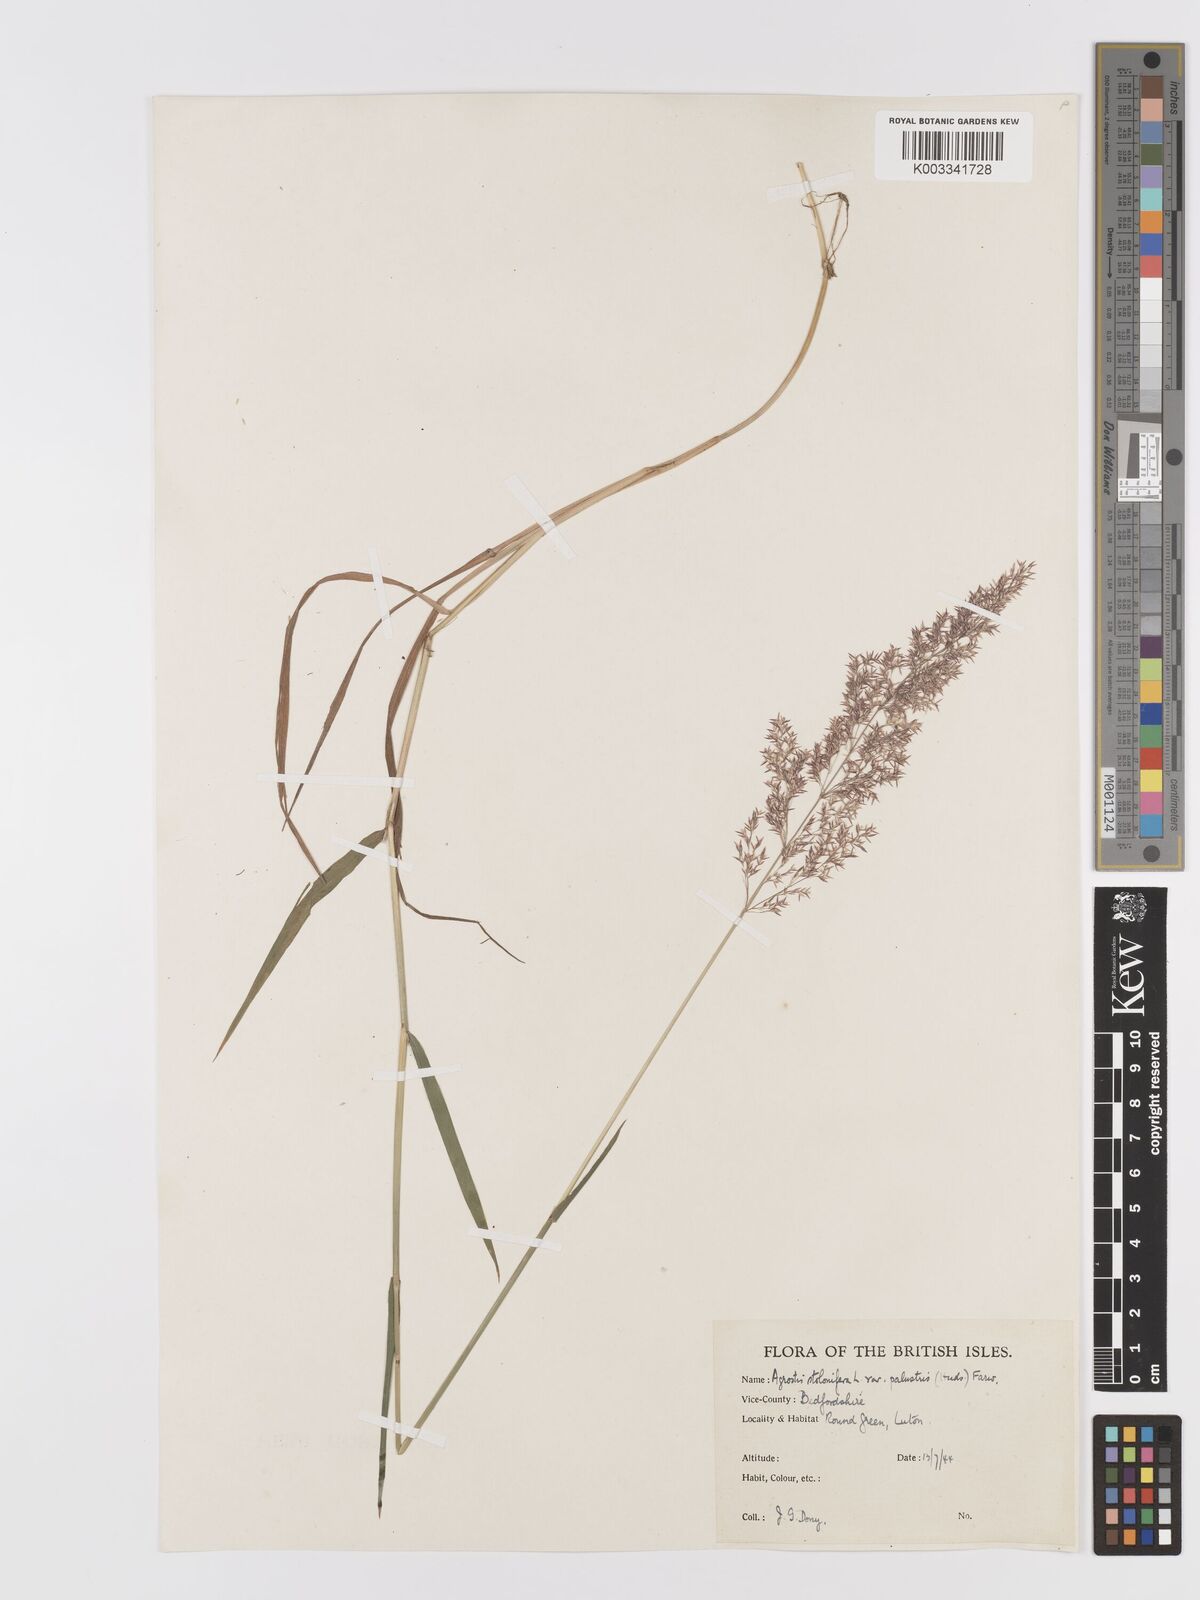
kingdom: Plantae
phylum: Tracheophyta
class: Liliopsida
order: Poales
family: Poaceae
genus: Agrostis
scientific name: Agrostis stolonifera
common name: Creeping bentgrass
